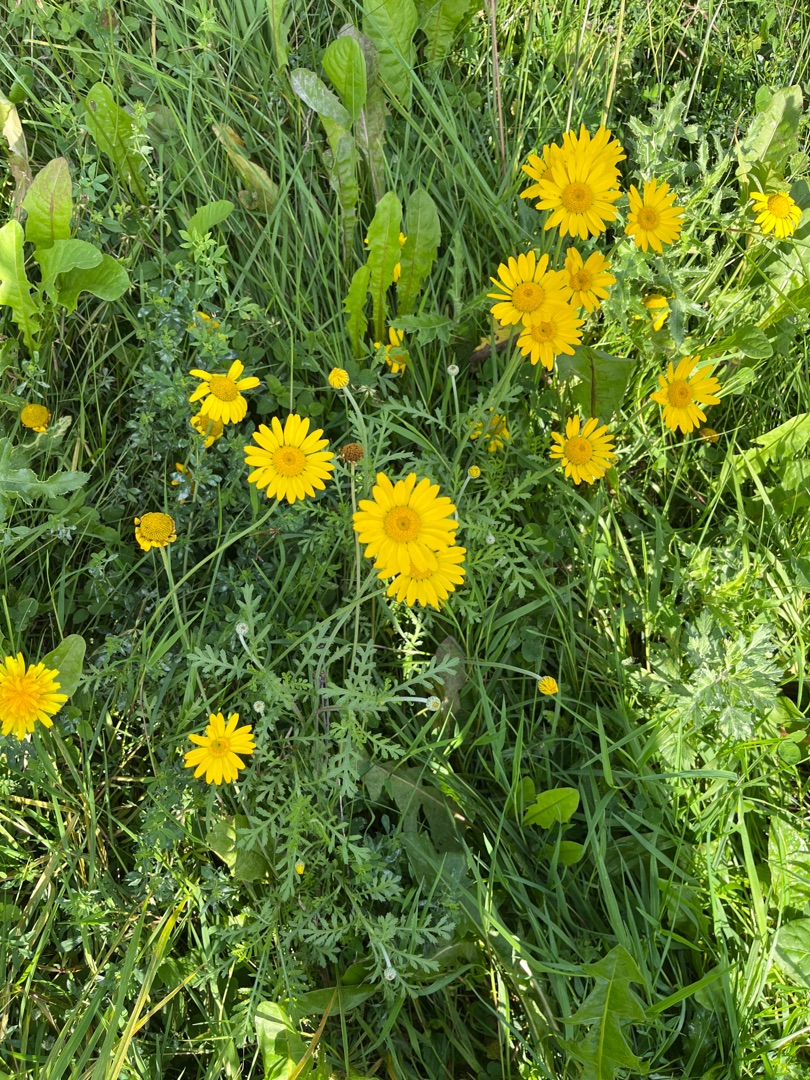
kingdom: Plantae
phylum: Tracheophyta
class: Magnoliopsida
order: Asterales
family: Asteraceae
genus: Cota
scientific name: Cota tinctoria
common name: Farve-gåseurt
